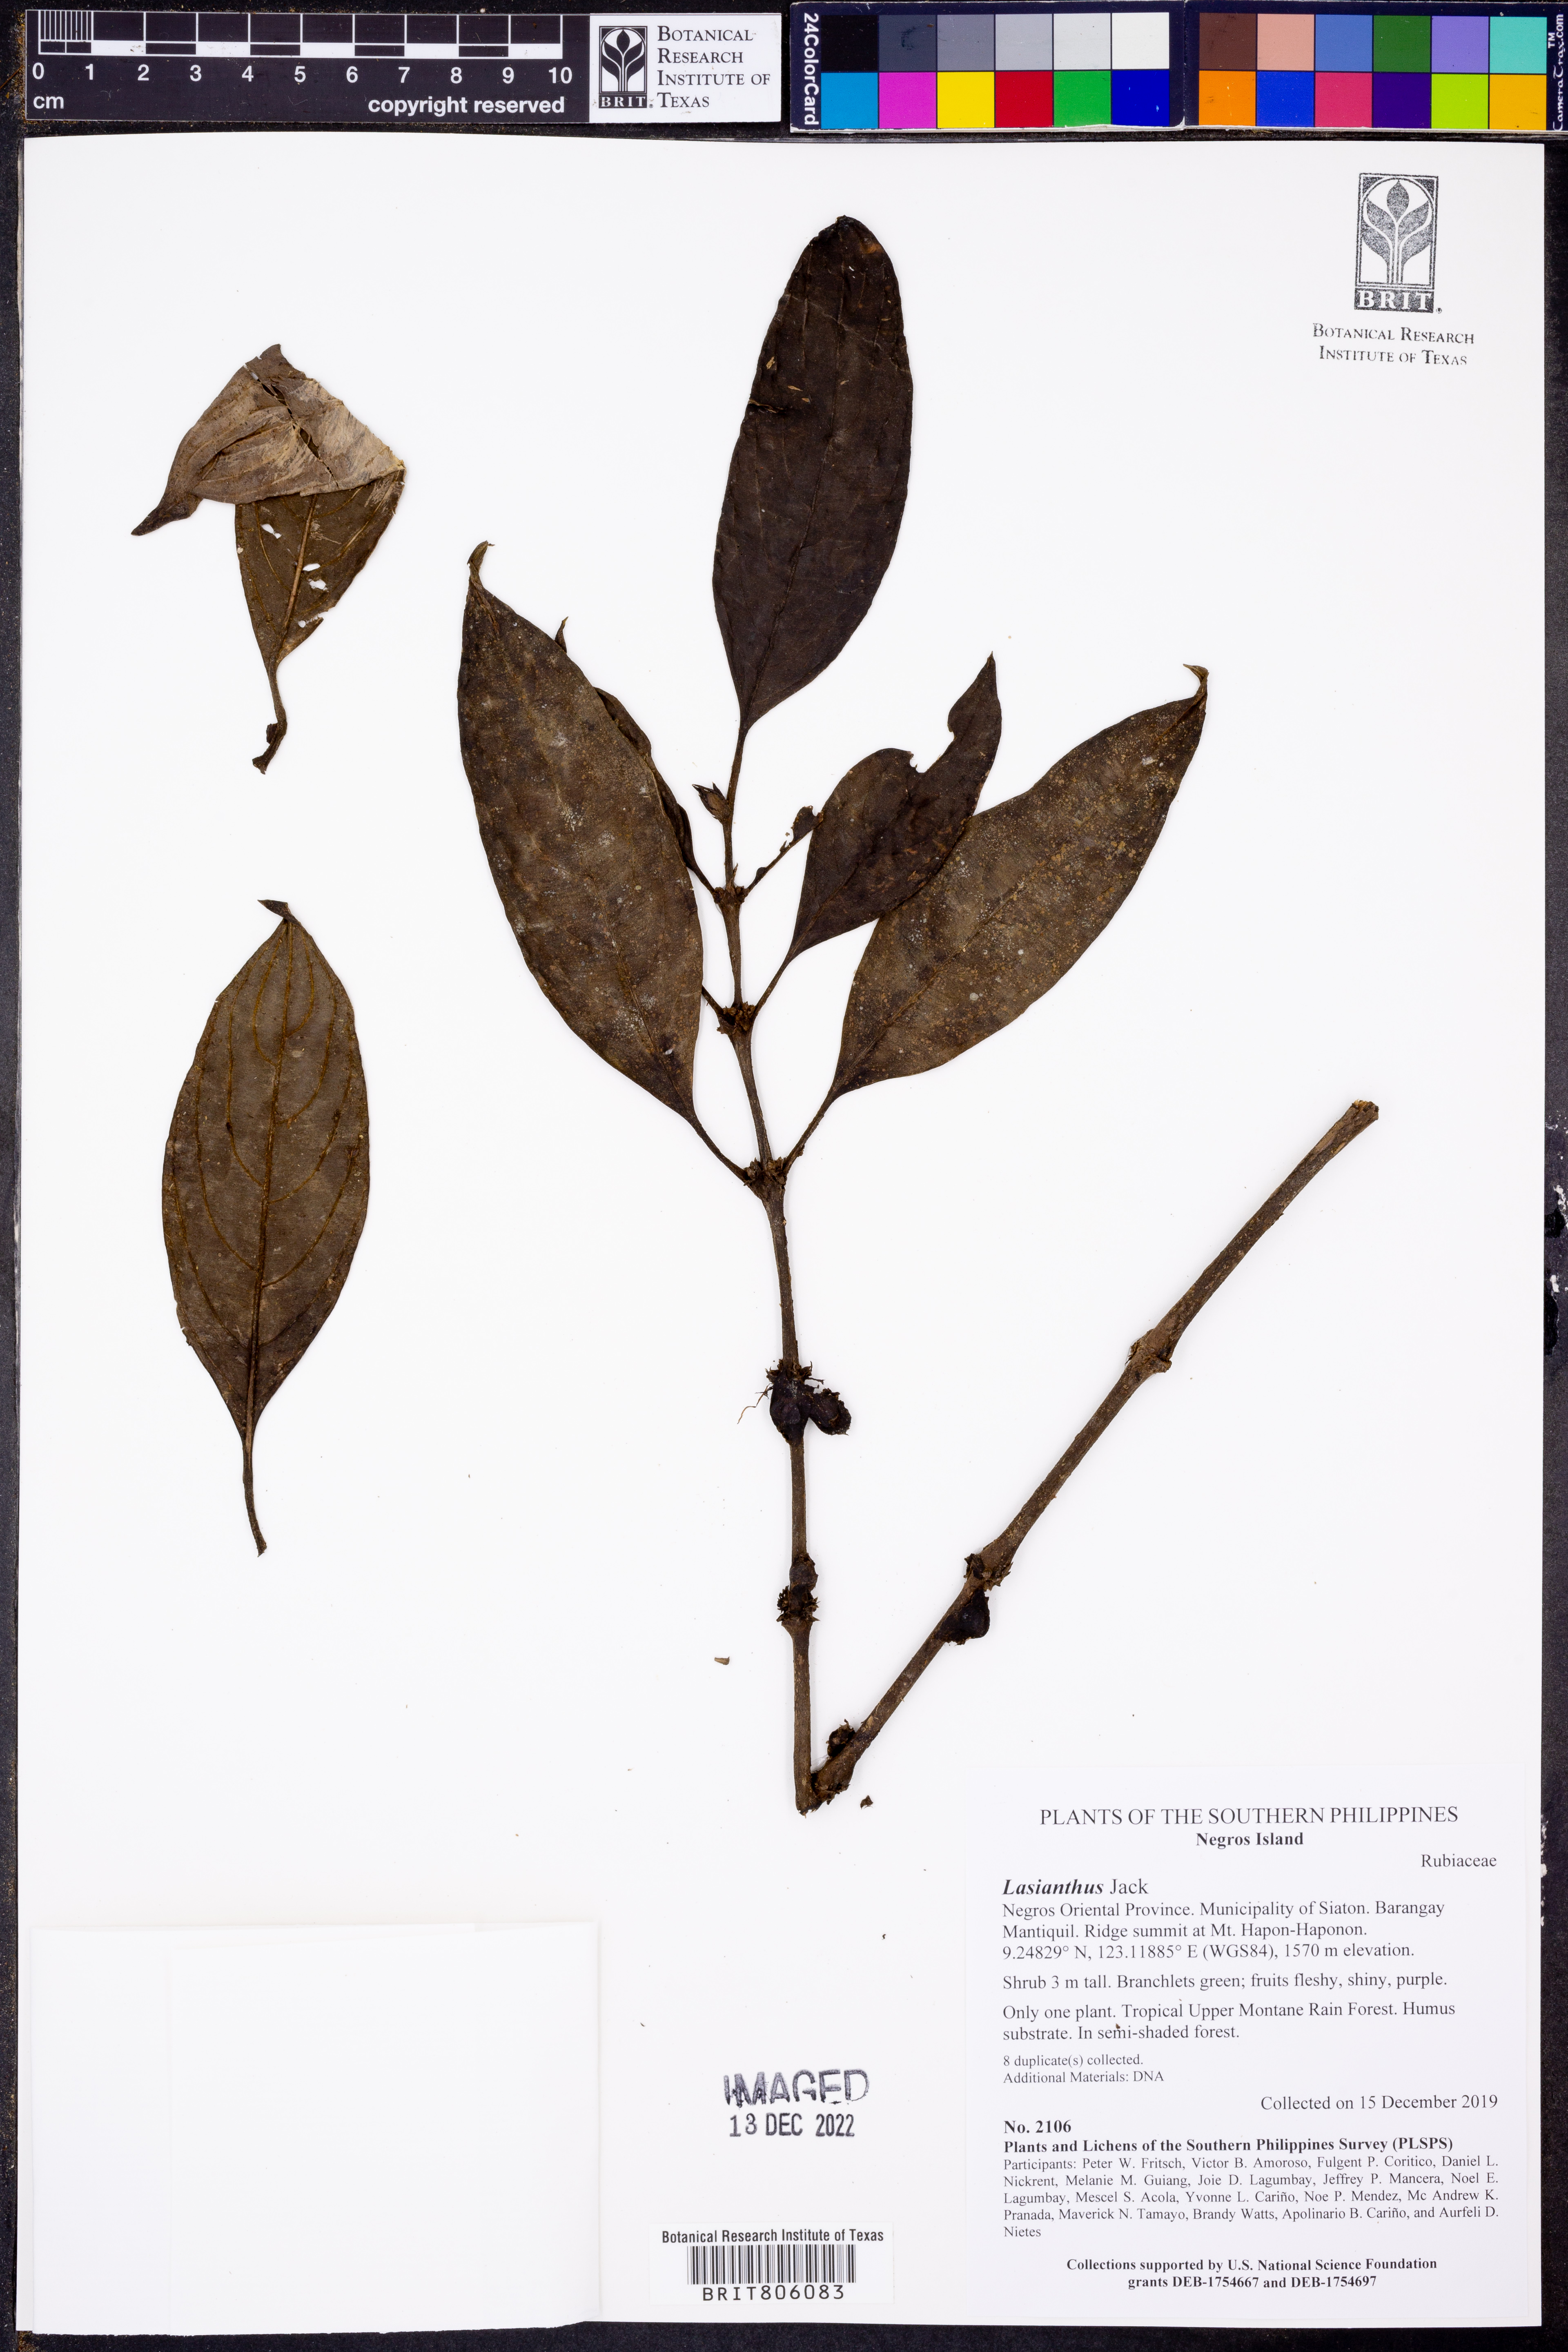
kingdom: Plantae
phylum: Tracheophyta
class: Magnoliopsida
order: Gentianales
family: Rubiaceae
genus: Lasianthus
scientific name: Lasianthus
